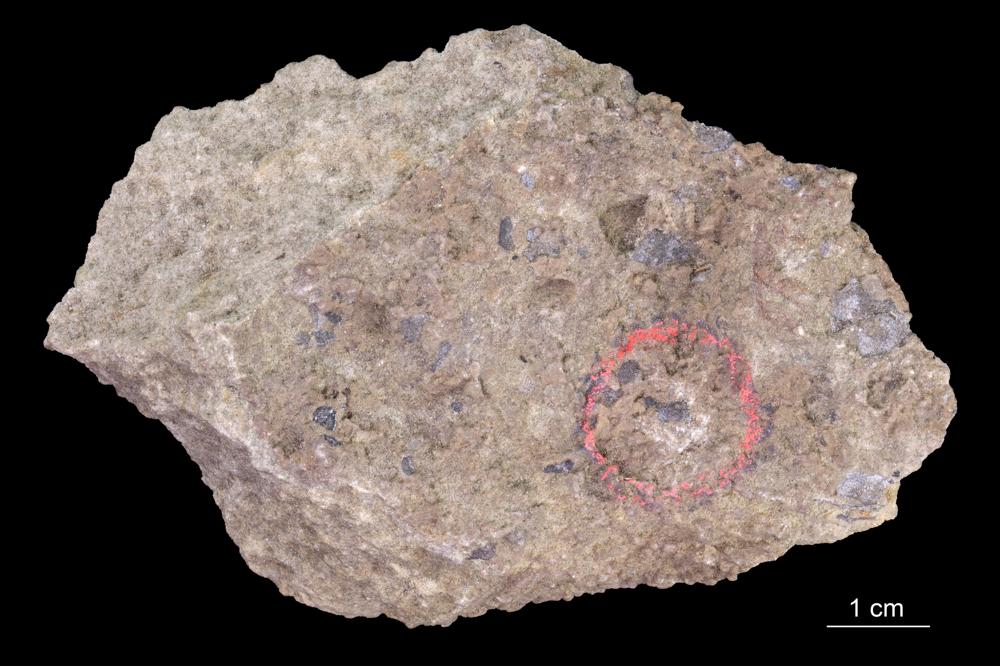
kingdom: Animalia
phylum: Annelida
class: Polychaeta
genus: Volborthella
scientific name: Volborthella tenuis
